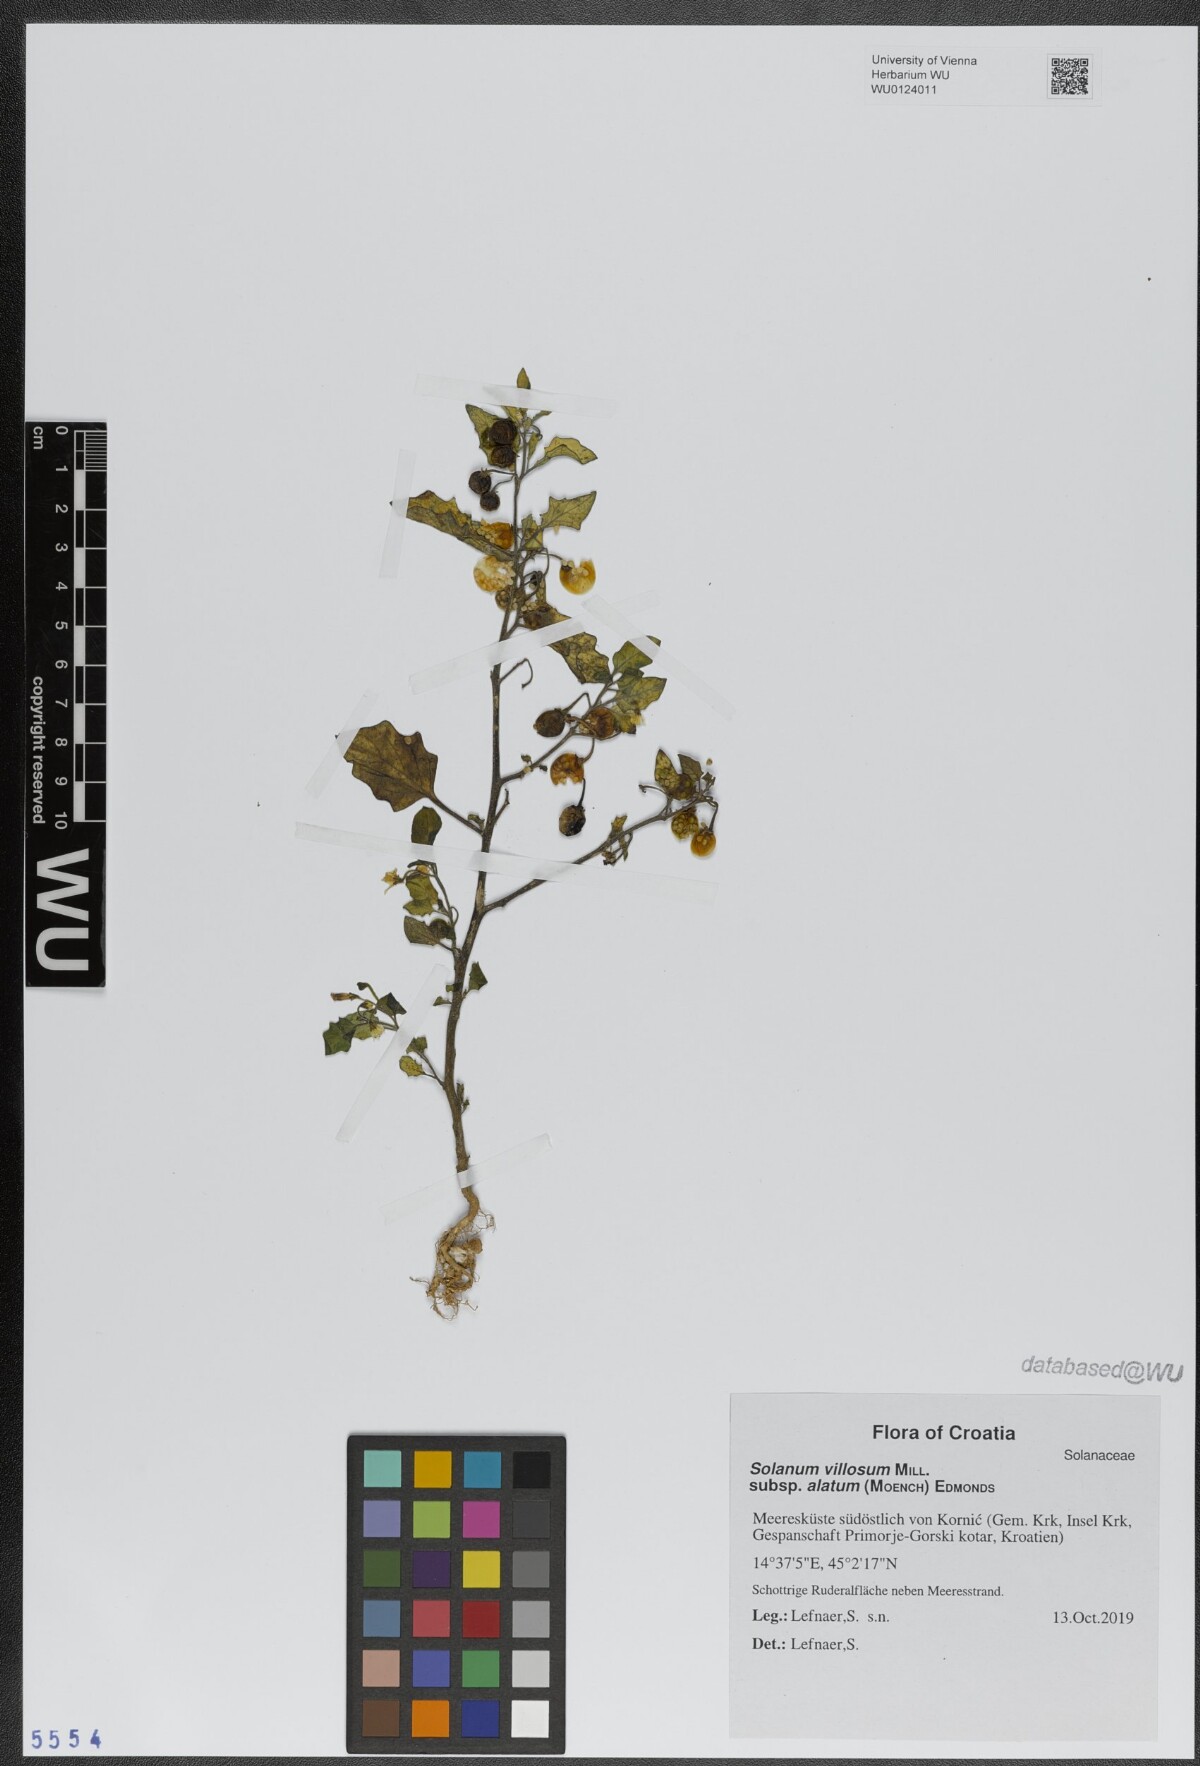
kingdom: Plantae
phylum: Tracheophyta
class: Magnoliopsida
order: Solanales
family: Solanaceae
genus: Solanum
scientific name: Solanum alatum
